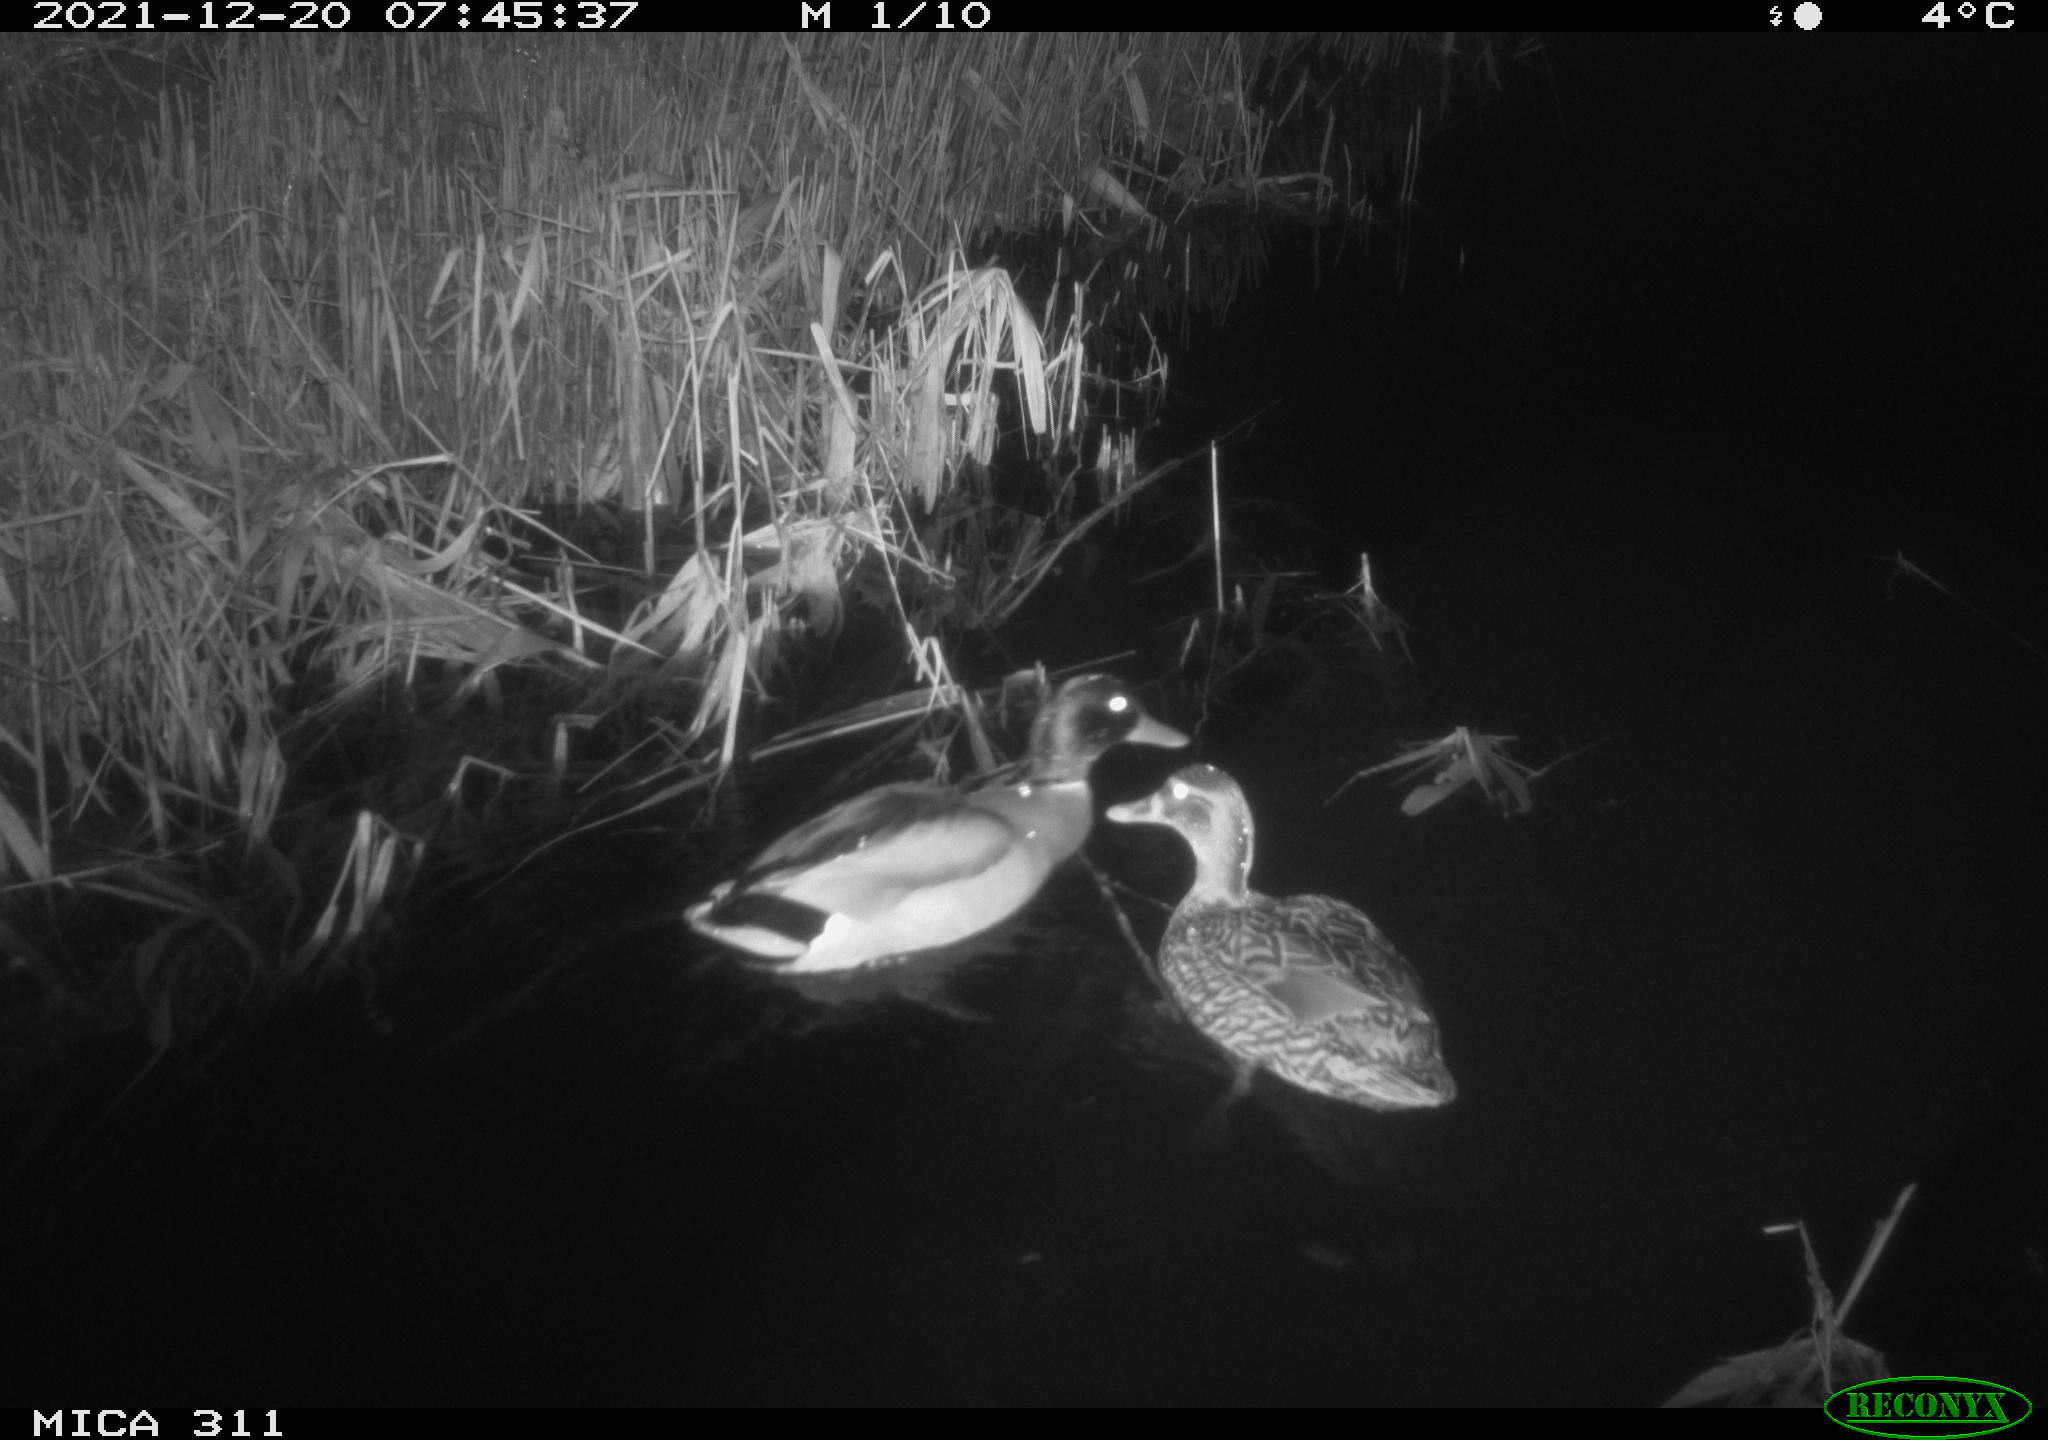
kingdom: Animalia
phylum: Chordata
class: Aves
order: Anseriformes
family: Anatidae
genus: Anas
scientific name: Anas platyrhynchos
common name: Mallard
